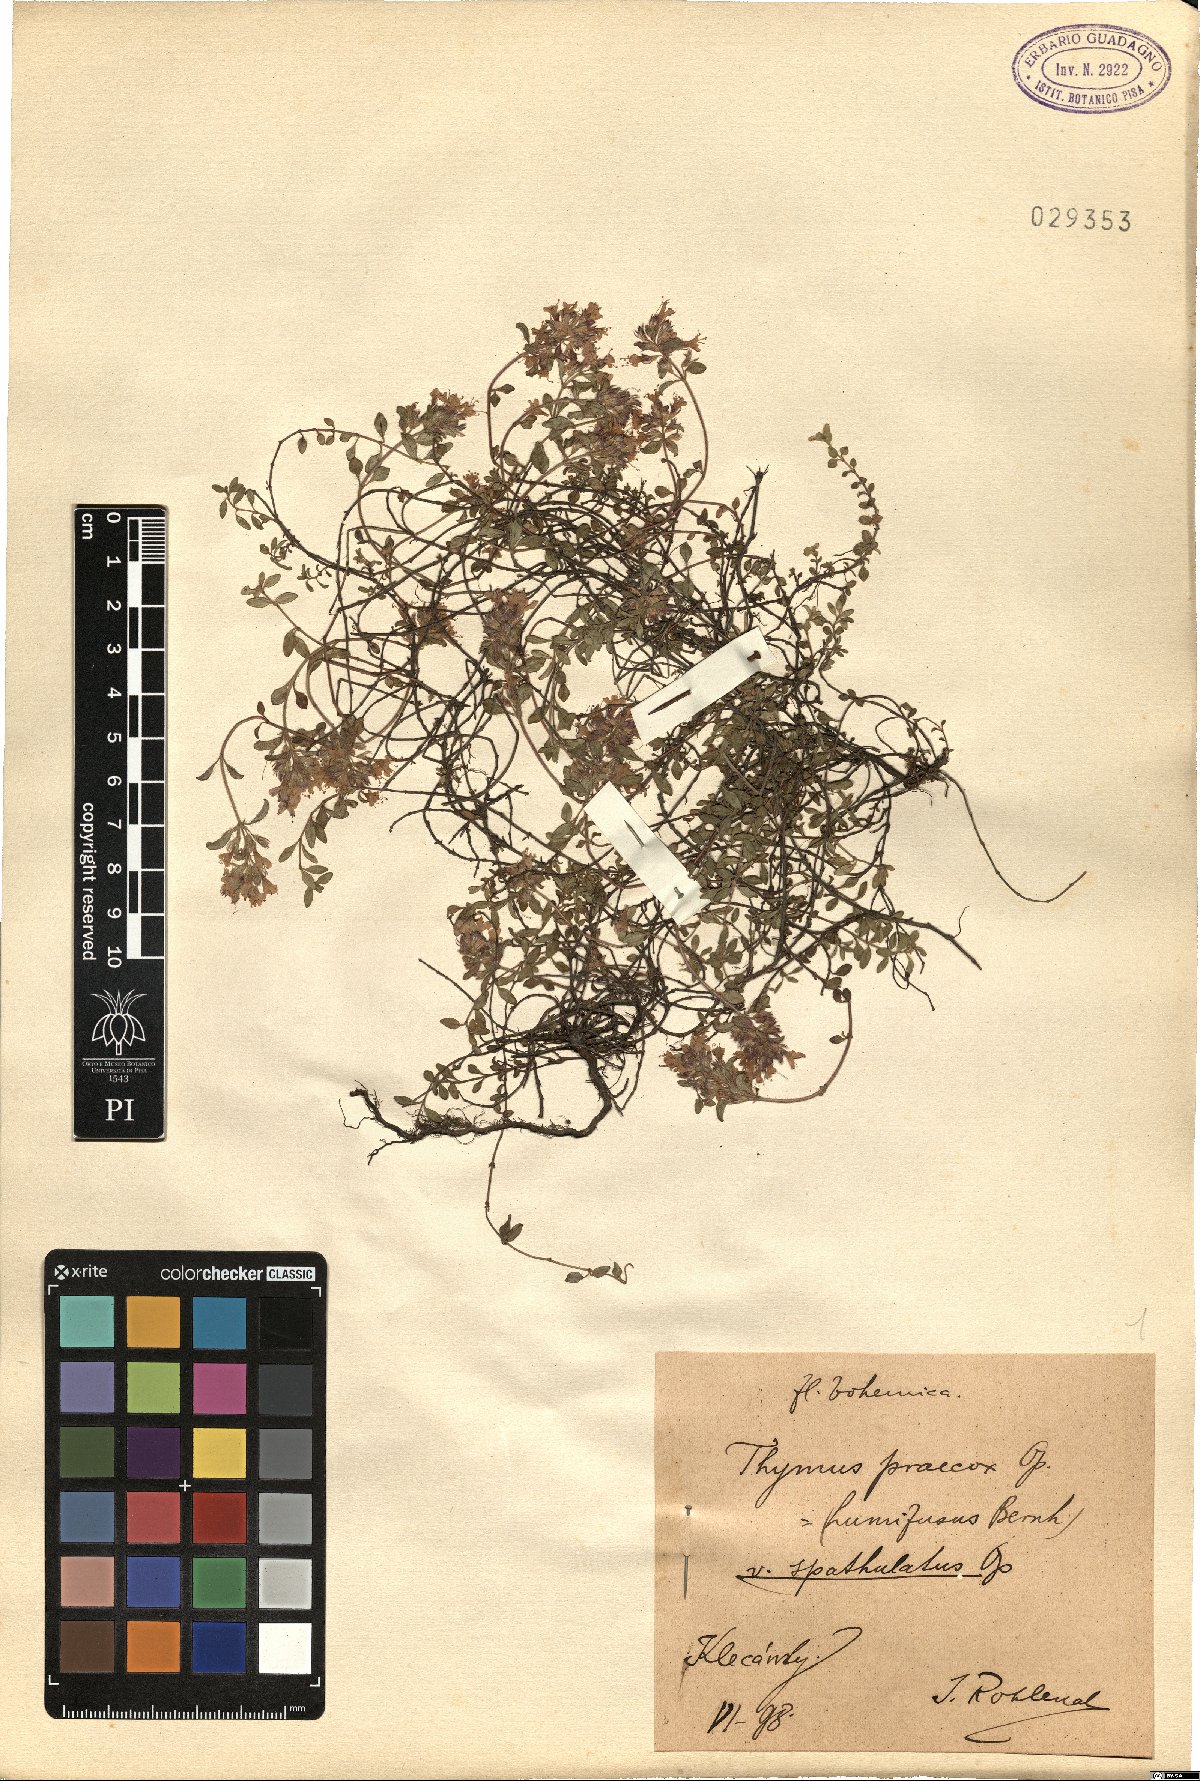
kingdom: Plantae
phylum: Tracheophyta
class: Magnoliopsida
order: Lamiales
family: Lamiaceae
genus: Thymus
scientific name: Thymus praecox
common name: Wild thyme
